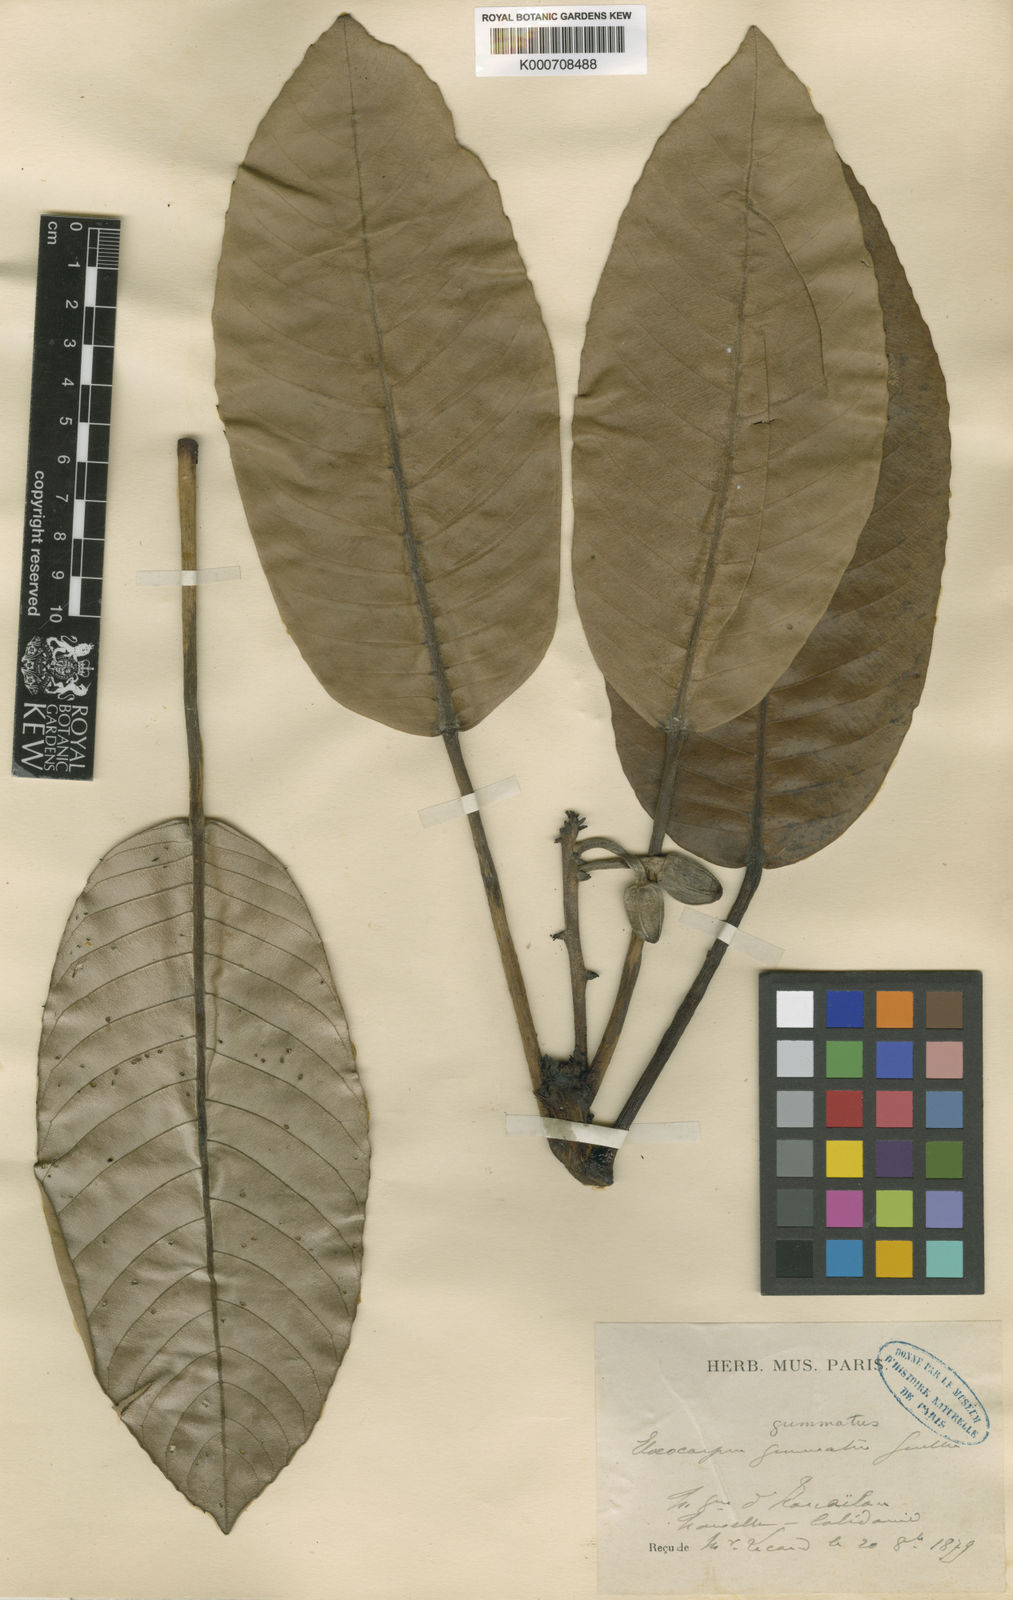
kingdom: Plantae
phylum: Tracheophyta
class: Magnoliopsida
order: Oxalidales
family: Elaeocarpaceae
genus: Elaeocarpus
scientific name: Elaeocarpus gummatus
